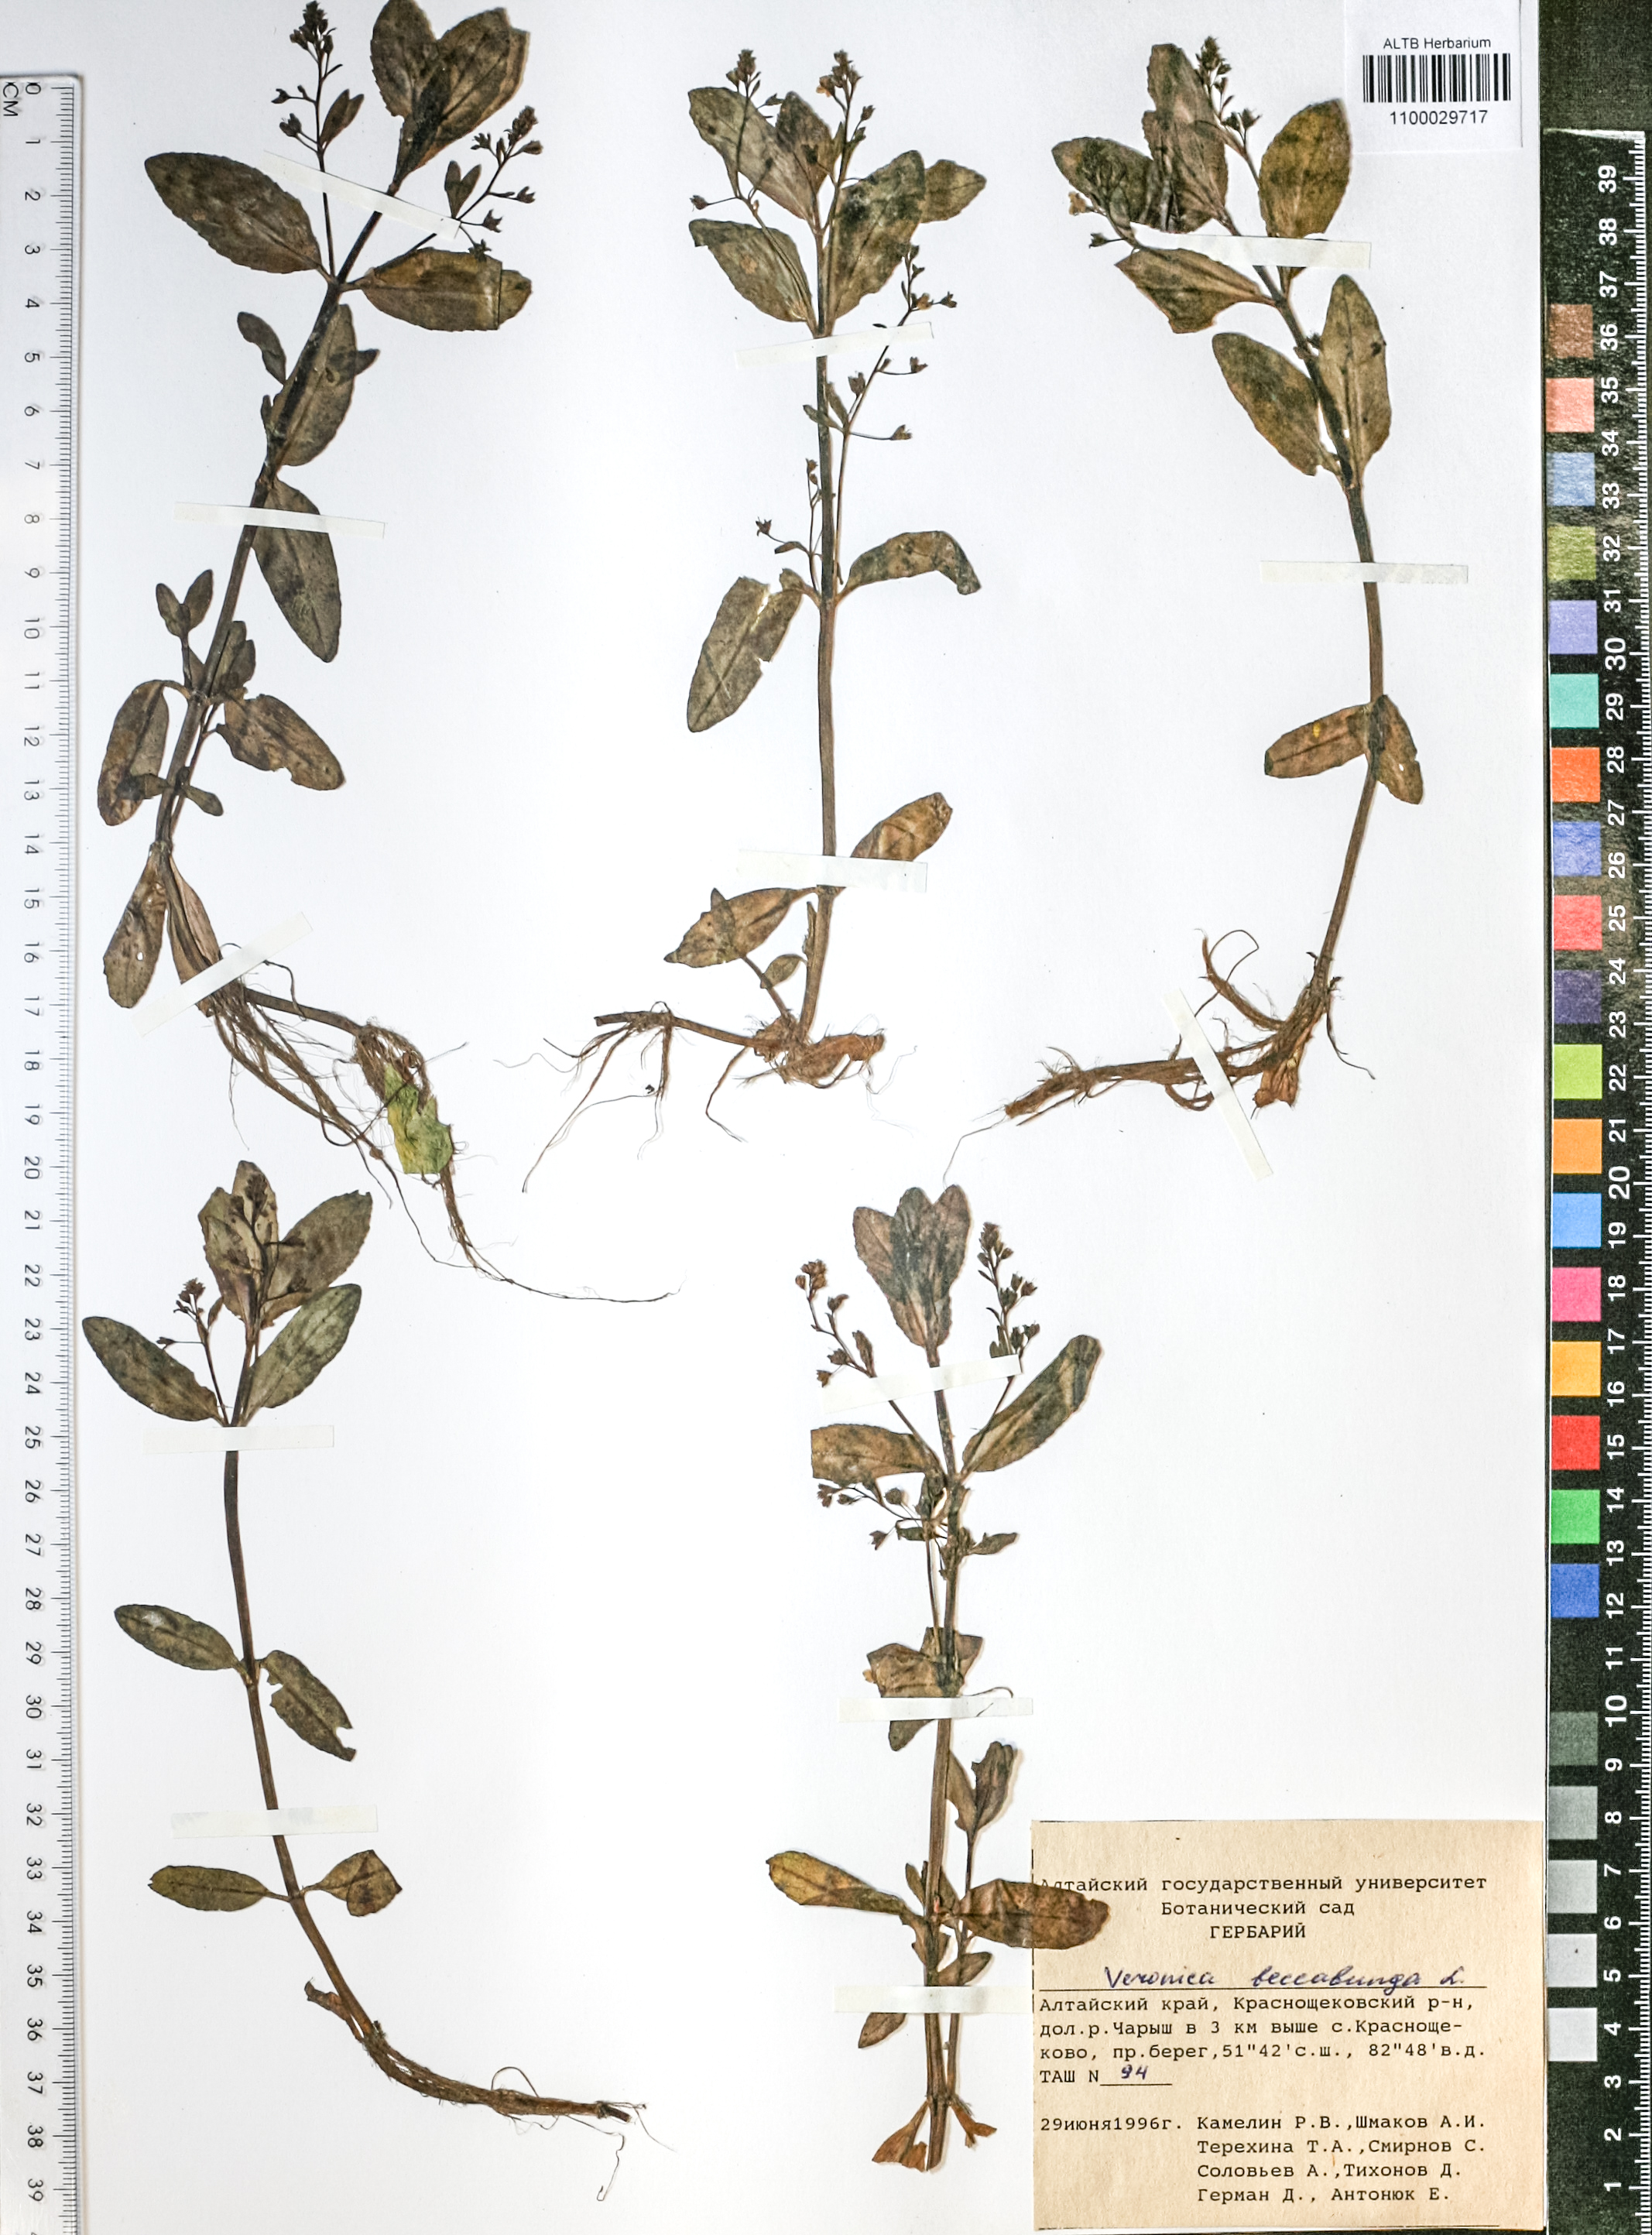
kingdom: Plantae
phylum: Tracheophyta
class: Magnoliopsida
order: Lamiales
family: Plantaginaceae
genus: Veronica
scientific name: Veronica beccabunga
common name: Brooklime
